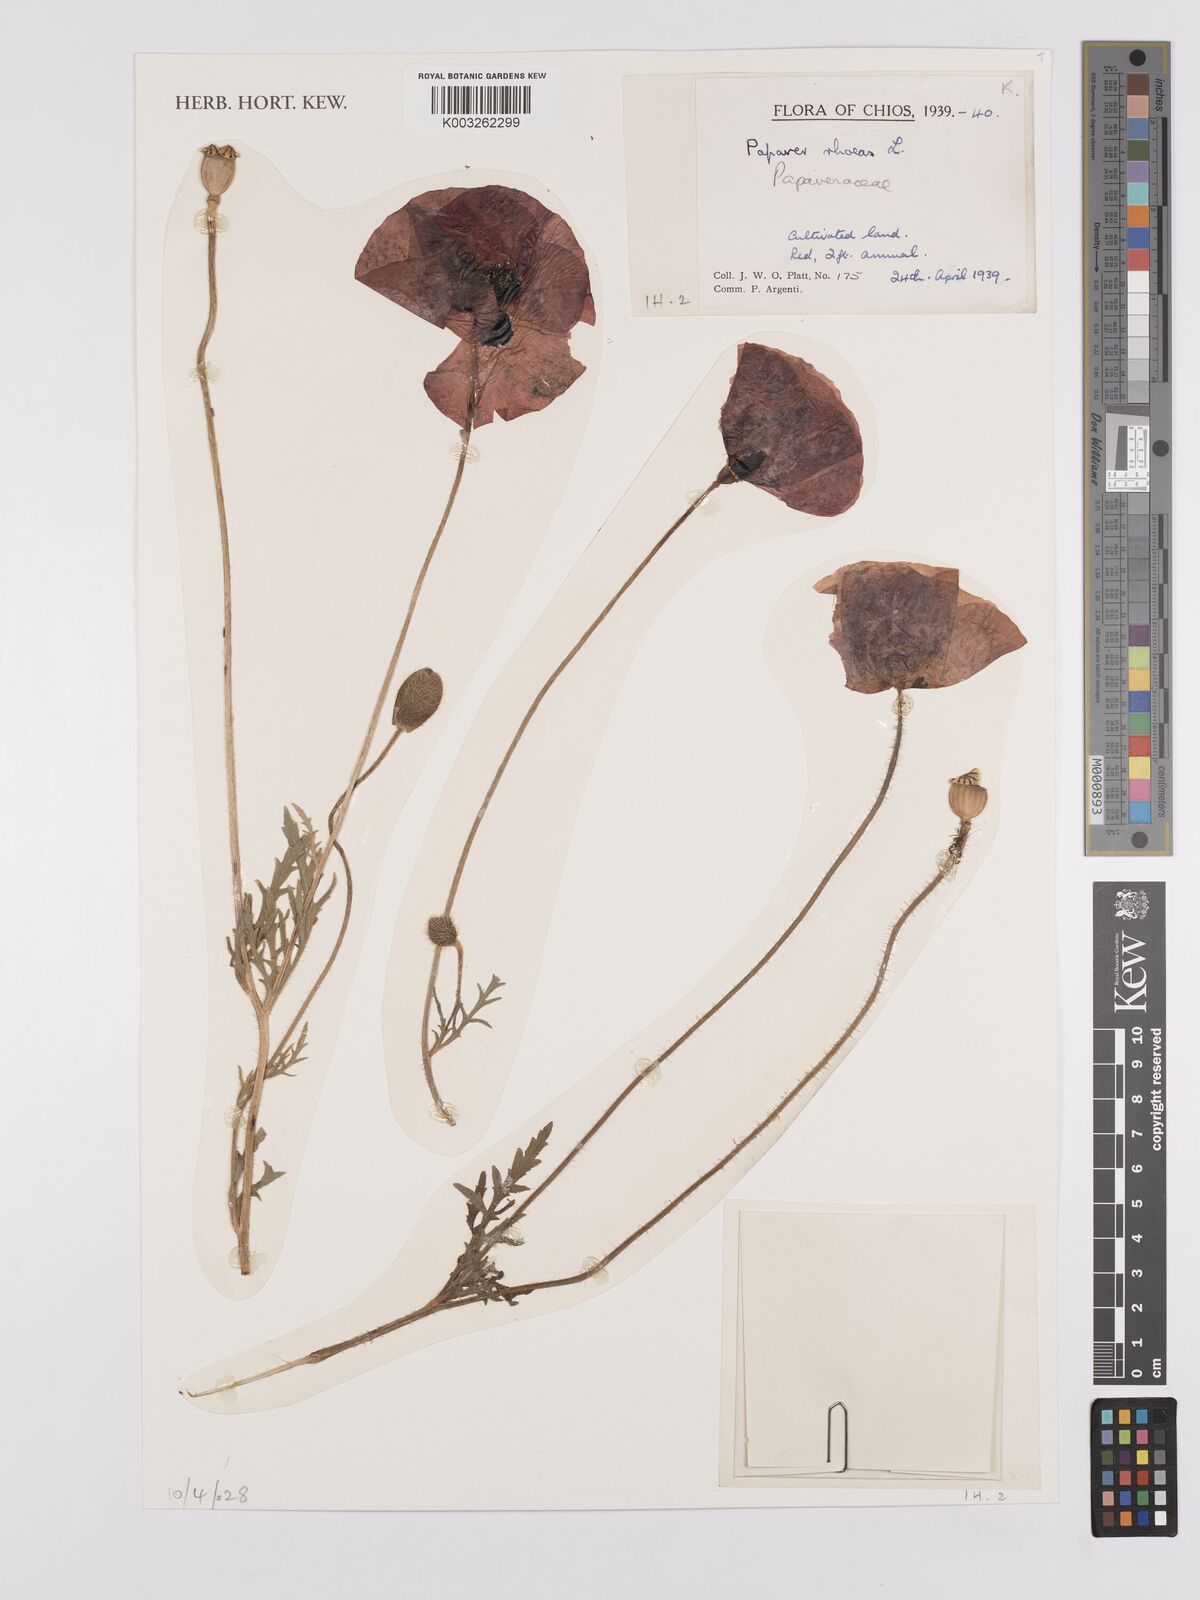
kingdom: Plantae
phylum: Tracheophyta
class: Magnoliopsida
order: Ranunculales
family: Papaveraceae
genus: Papaver
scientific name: Papaver rhoeas
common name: Corn poppy
